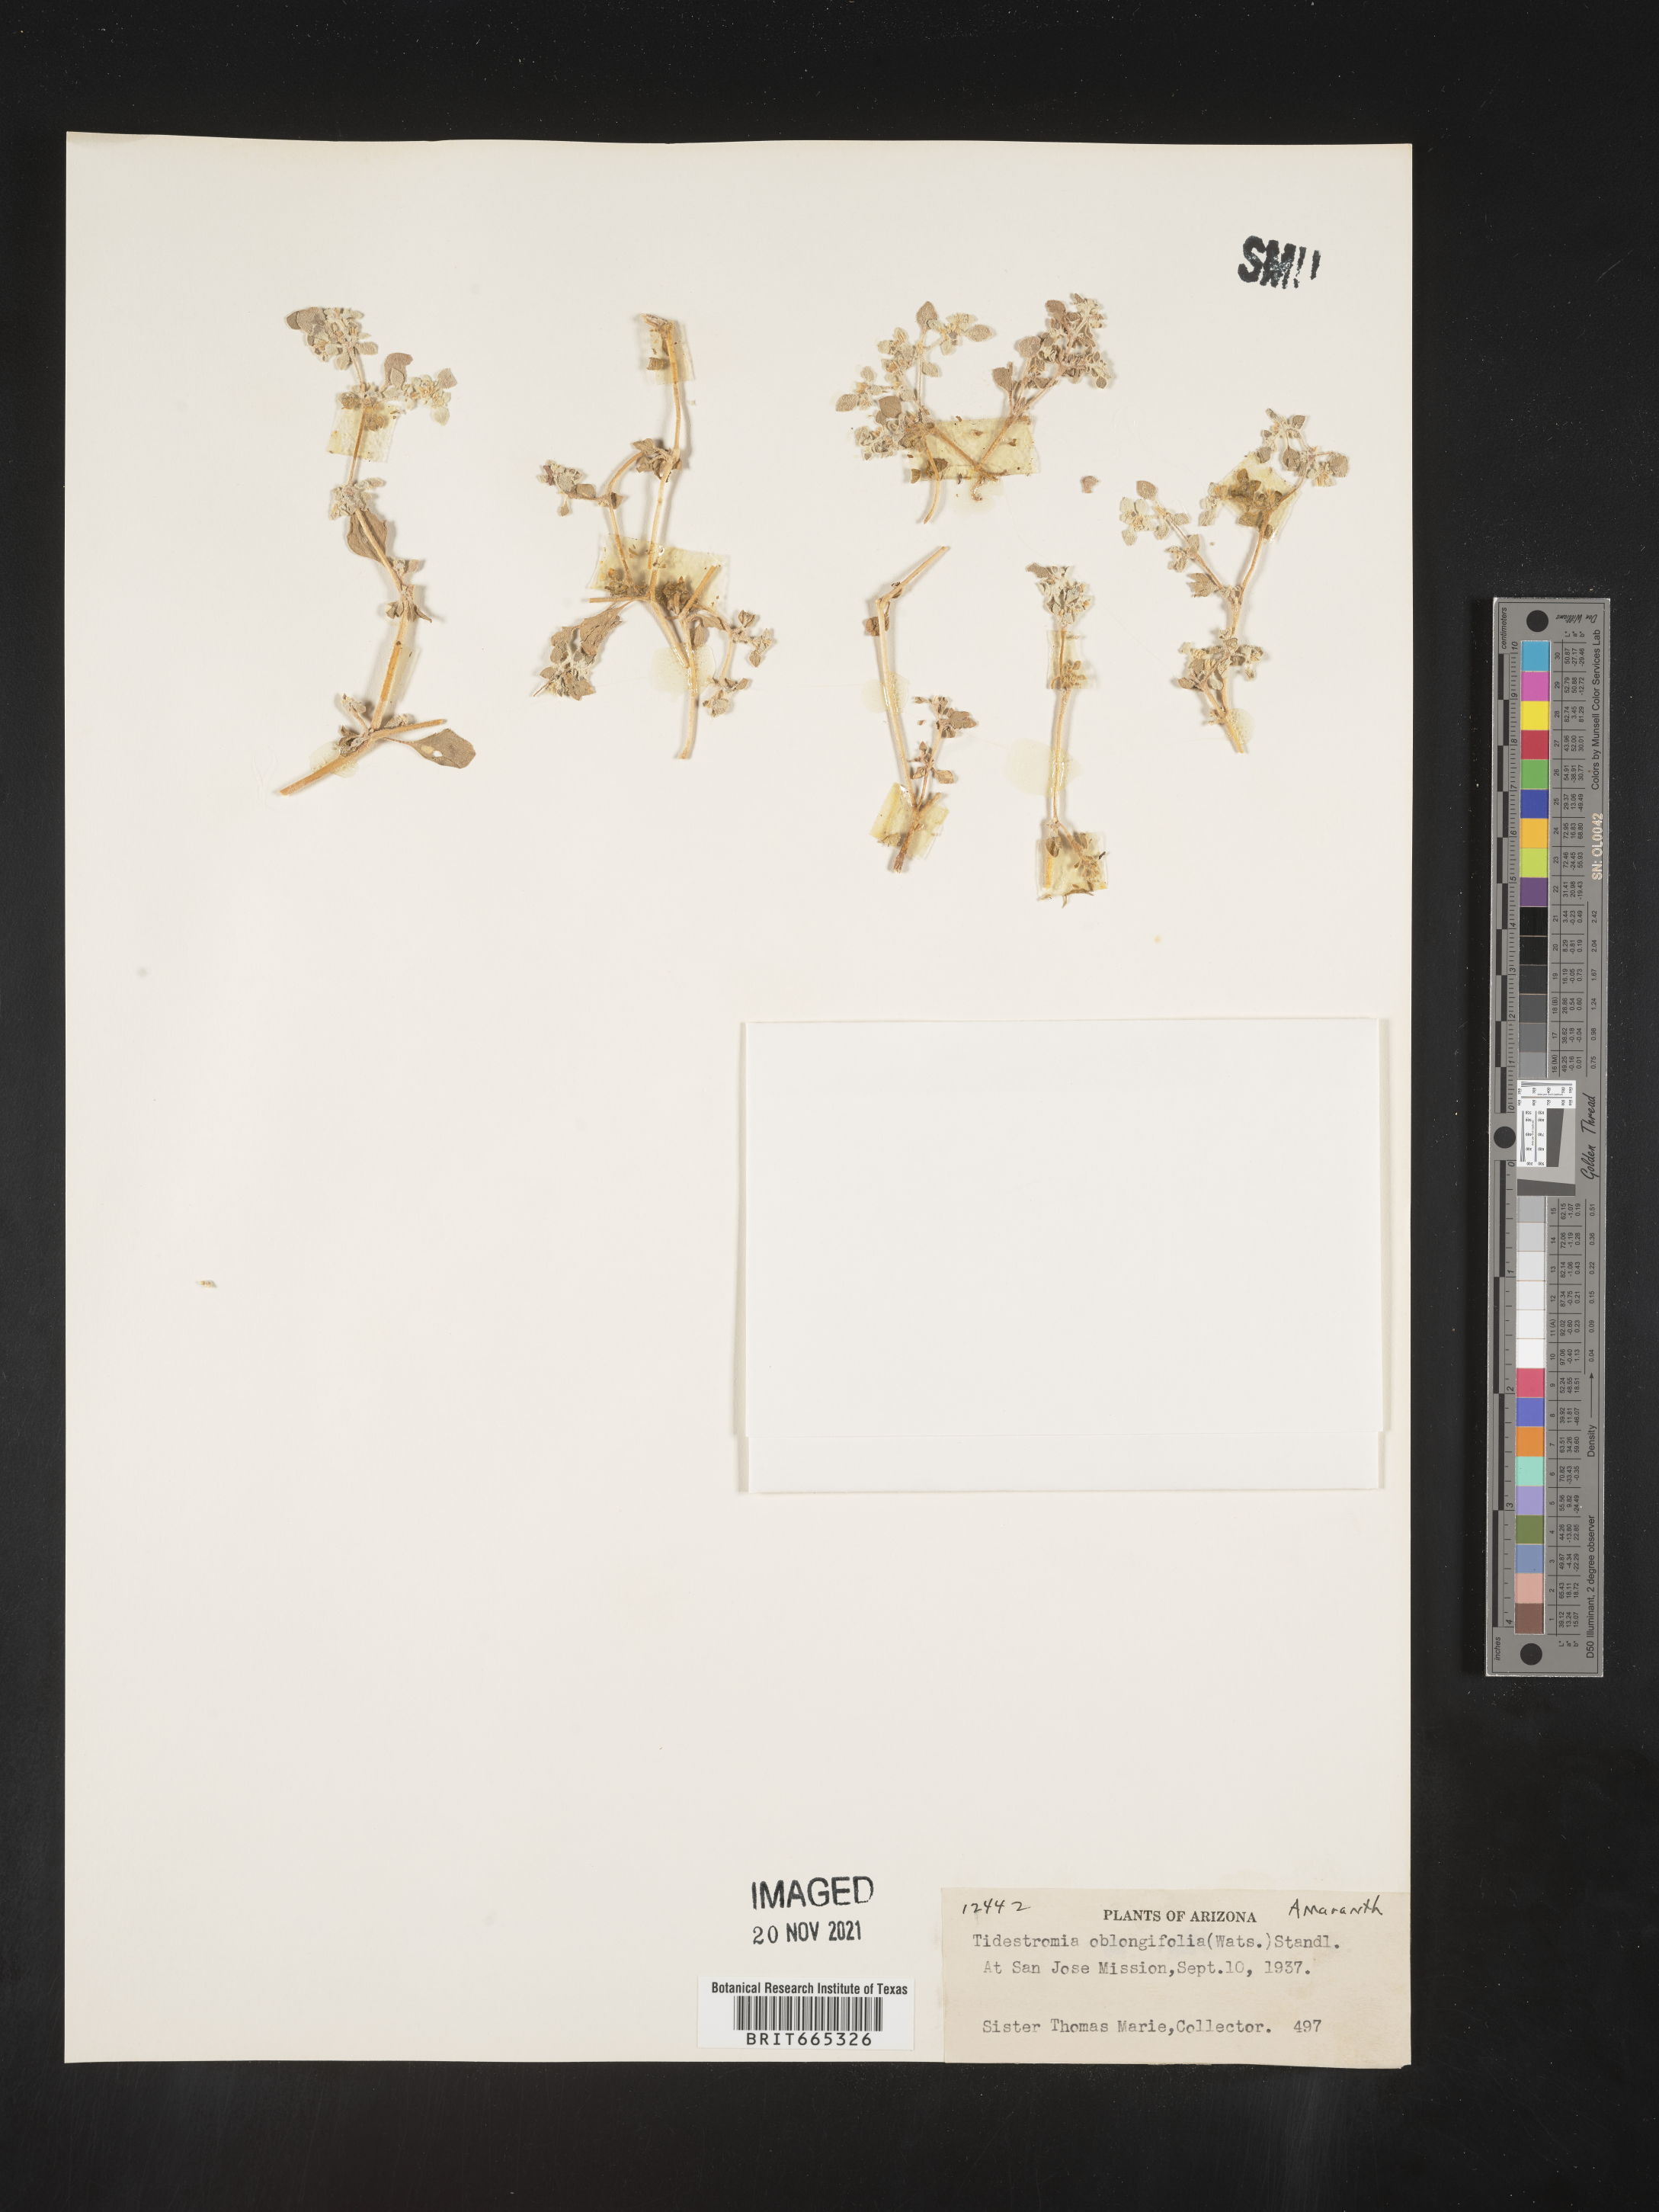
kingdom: Plantae
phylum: Tracheophyta
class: Magnoliopsida
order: Caryophyllales
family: Amaranthaceae
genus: Tidestromia
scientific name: Tidestromia suffruticosa
